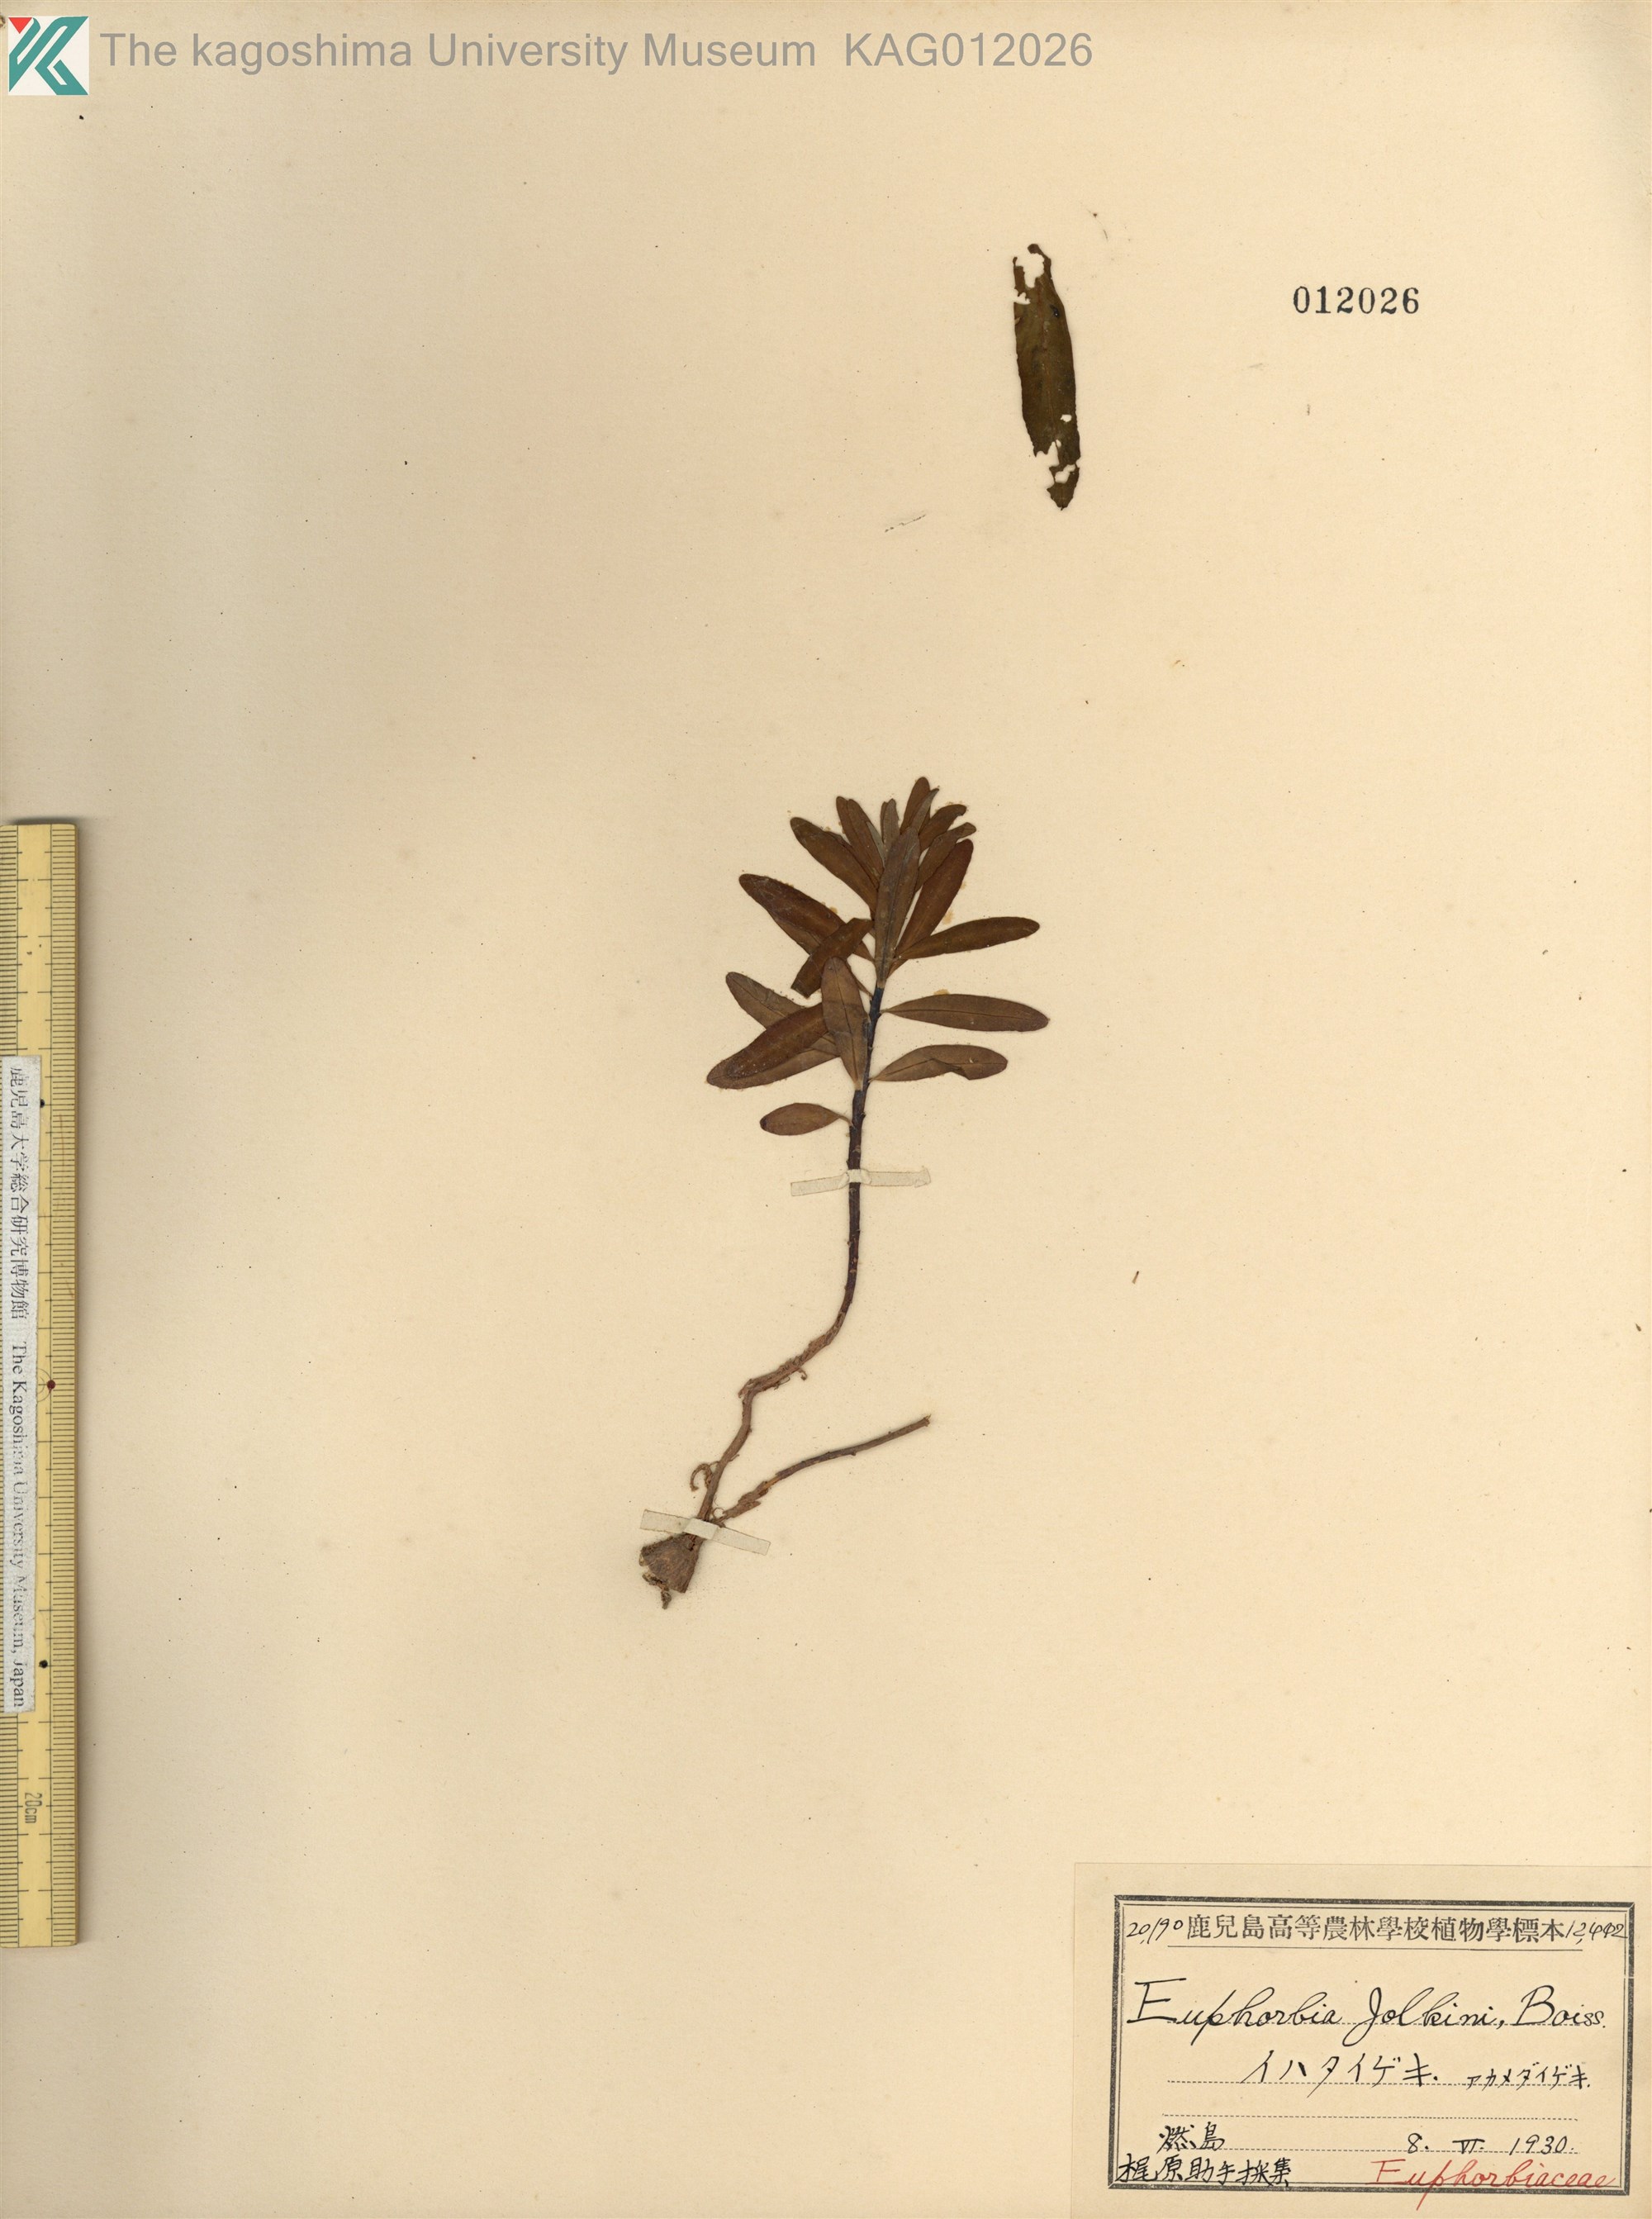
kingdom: Plantae
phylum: Tracheophyta
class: Magnoliopsida
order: Malpighiales
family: Euphorbiaceae
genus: Euphorbia
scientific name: Euphorbia jolkinii
